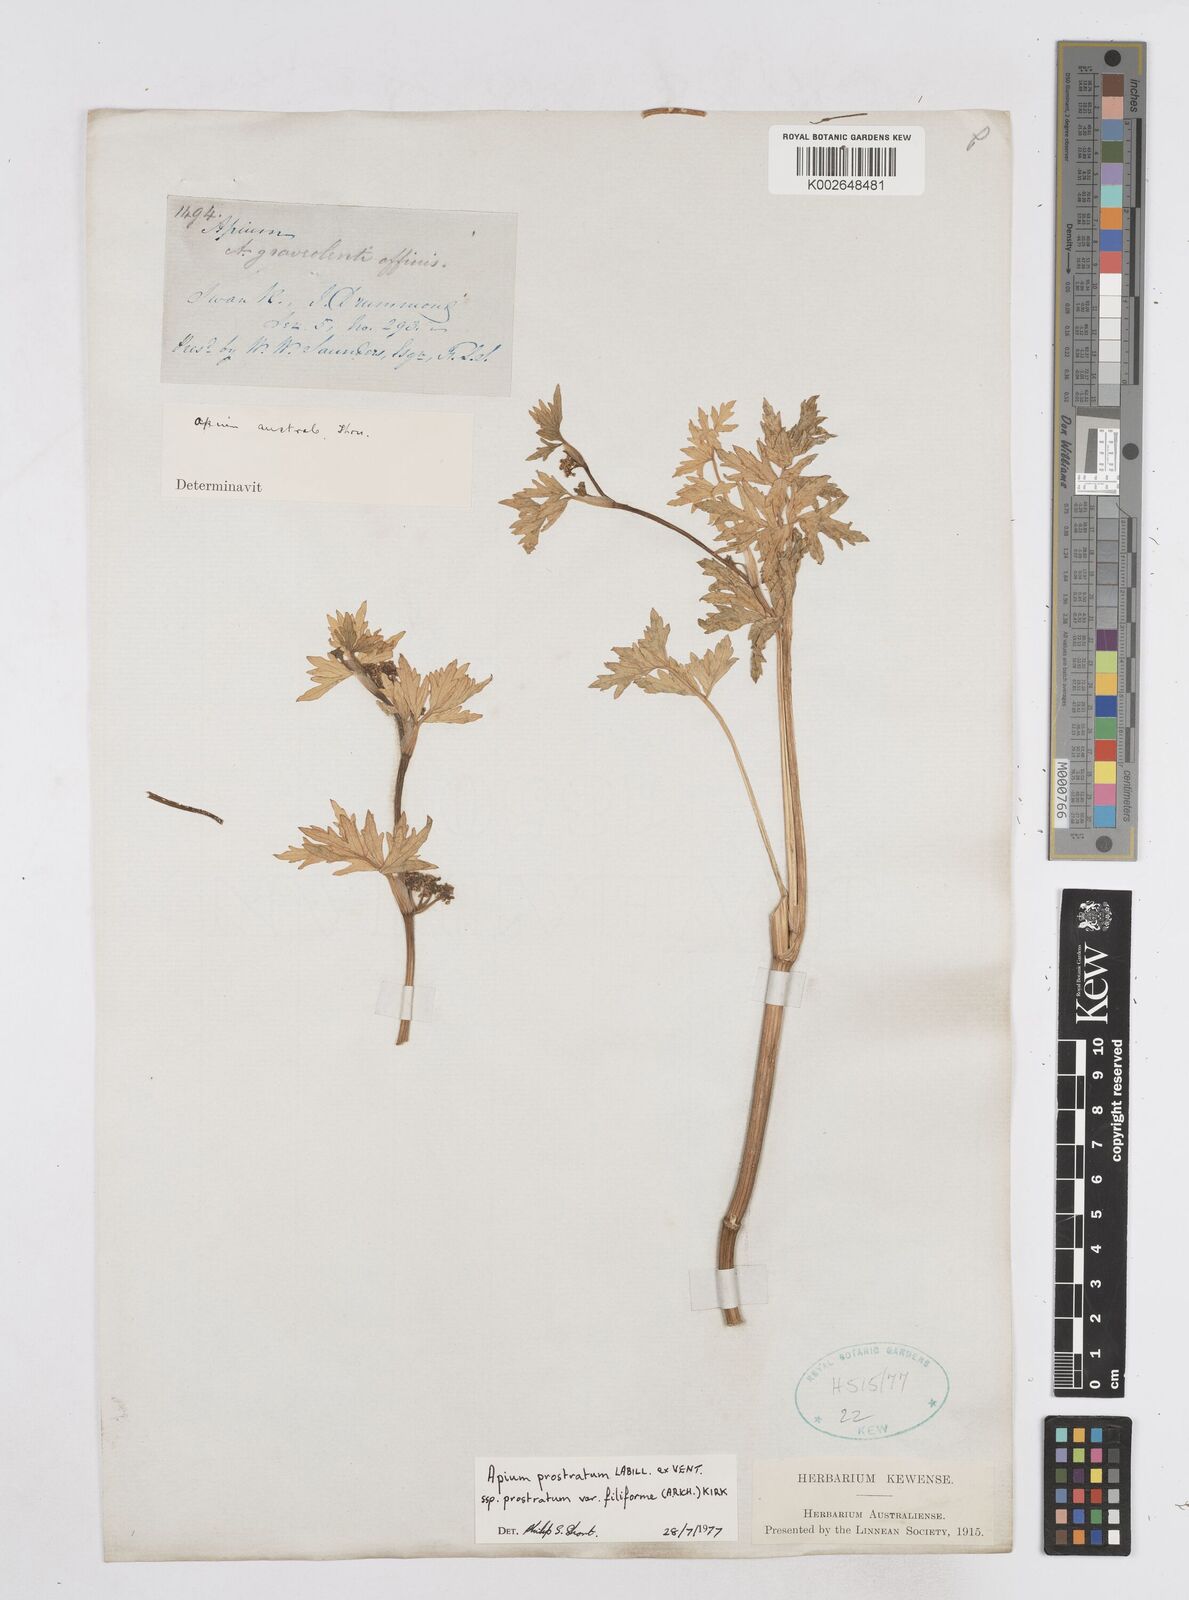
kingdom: Plantae
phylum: Tracheophyta
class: Magnoliopsida
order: Apiales
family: Apiaceae
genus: Apium
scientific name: Apium prostratum
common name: Prostrate marshwort
